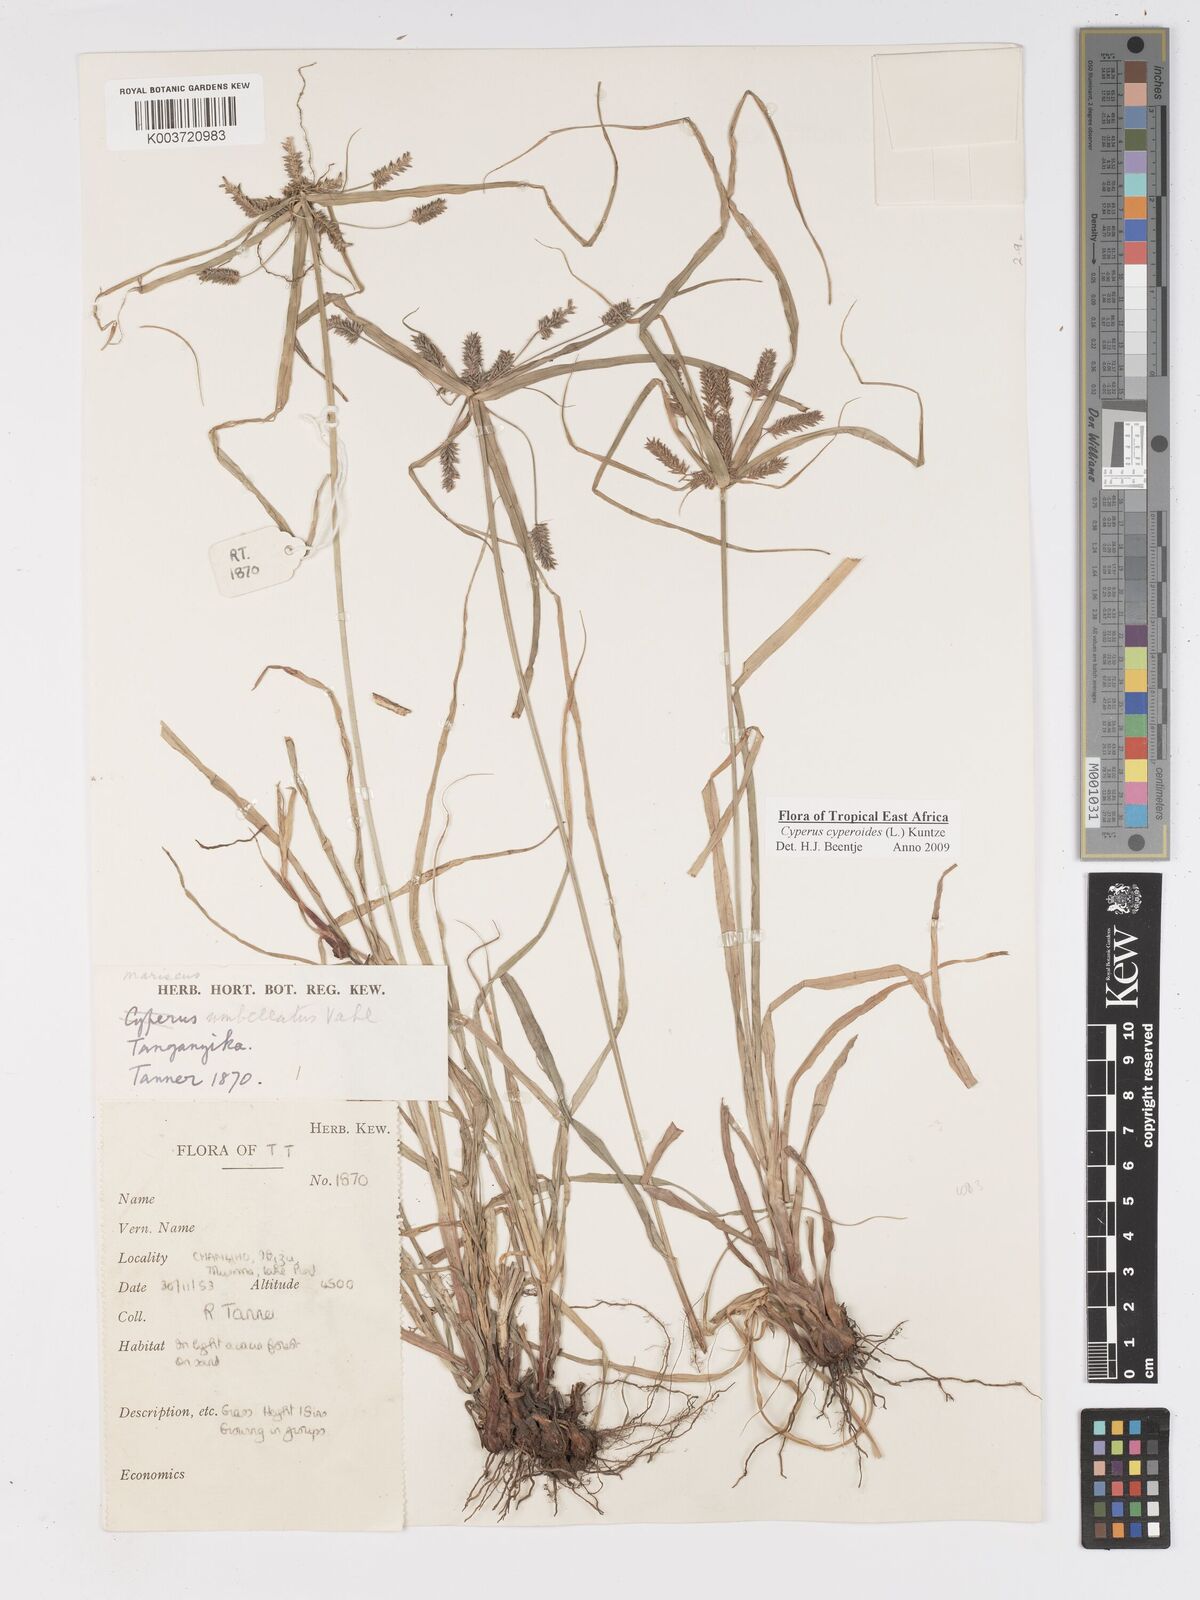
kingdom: Plantae
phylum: Tracheophyta
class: Liliopsida
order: Poales
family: Cyperaceae
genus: Cyperus
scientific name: Cyperus macrocarpus
